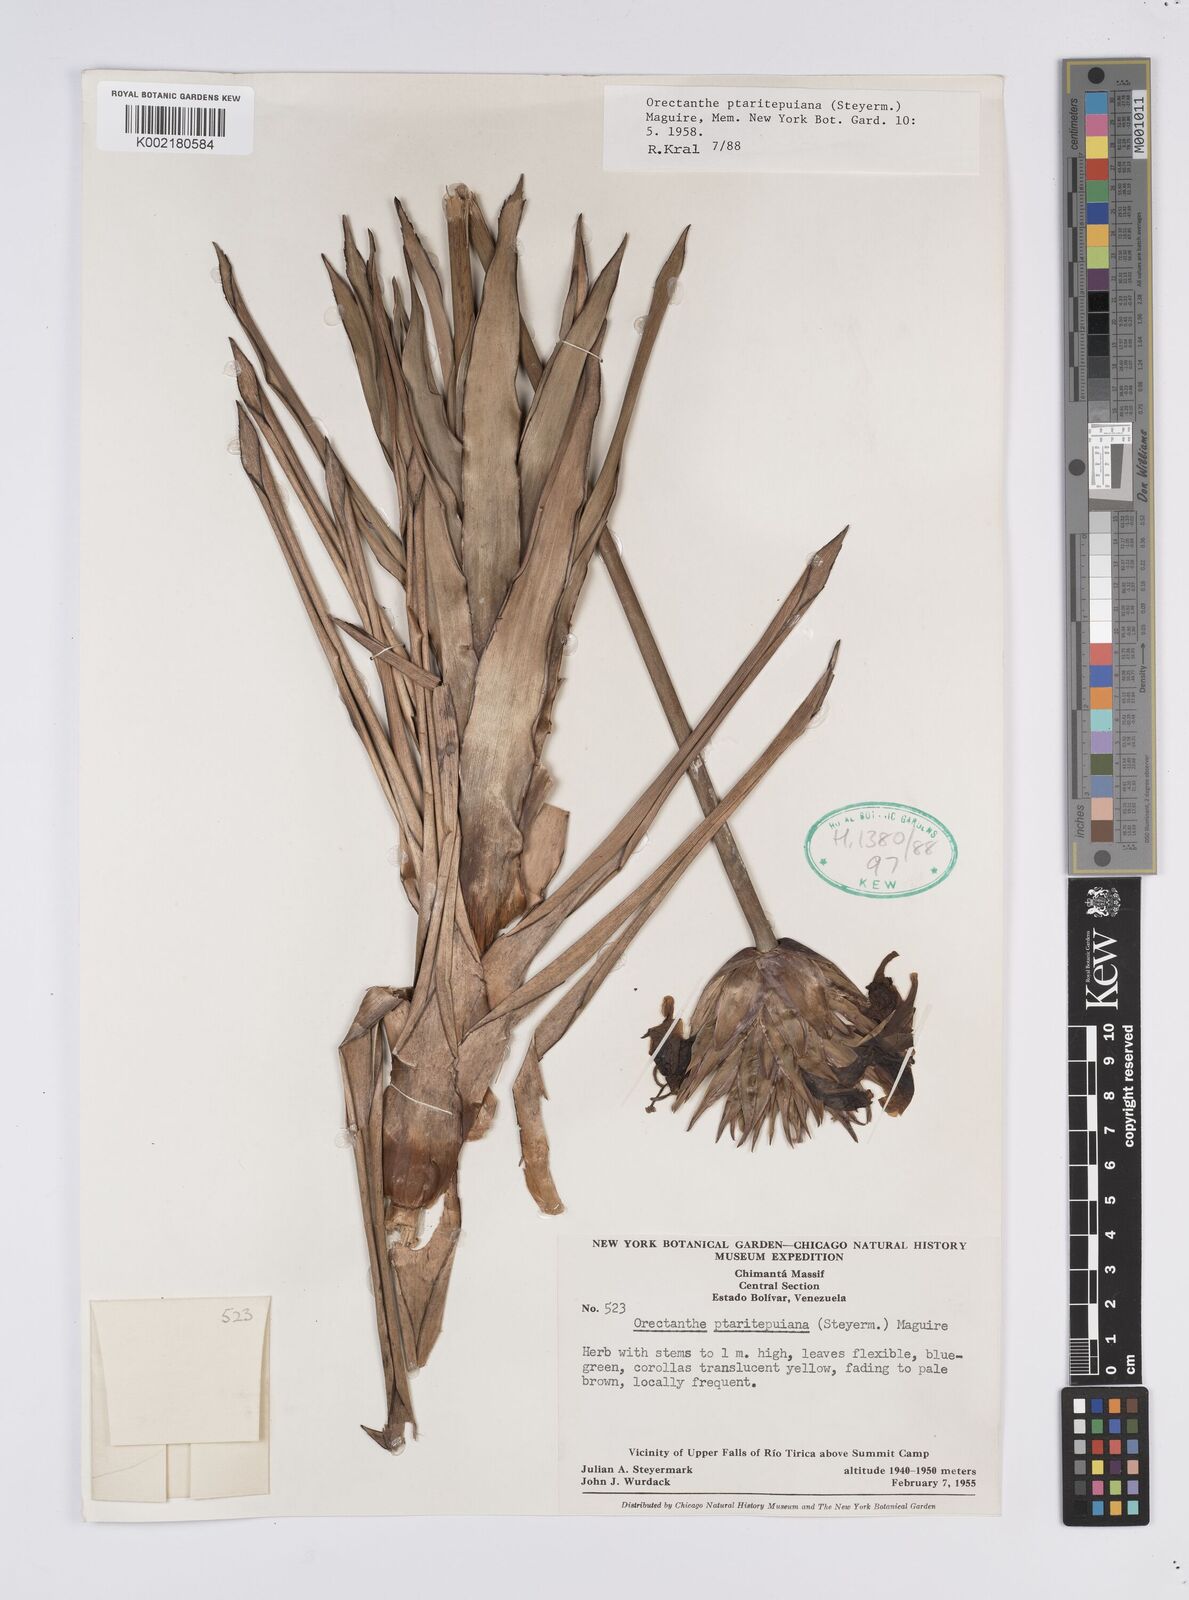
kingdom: Plantae
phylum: Tracheophyta
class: Liliopsida
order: Poales
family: Xyridaceae
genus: Orectanthe
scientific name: Orectanthe ptaritepuiana
